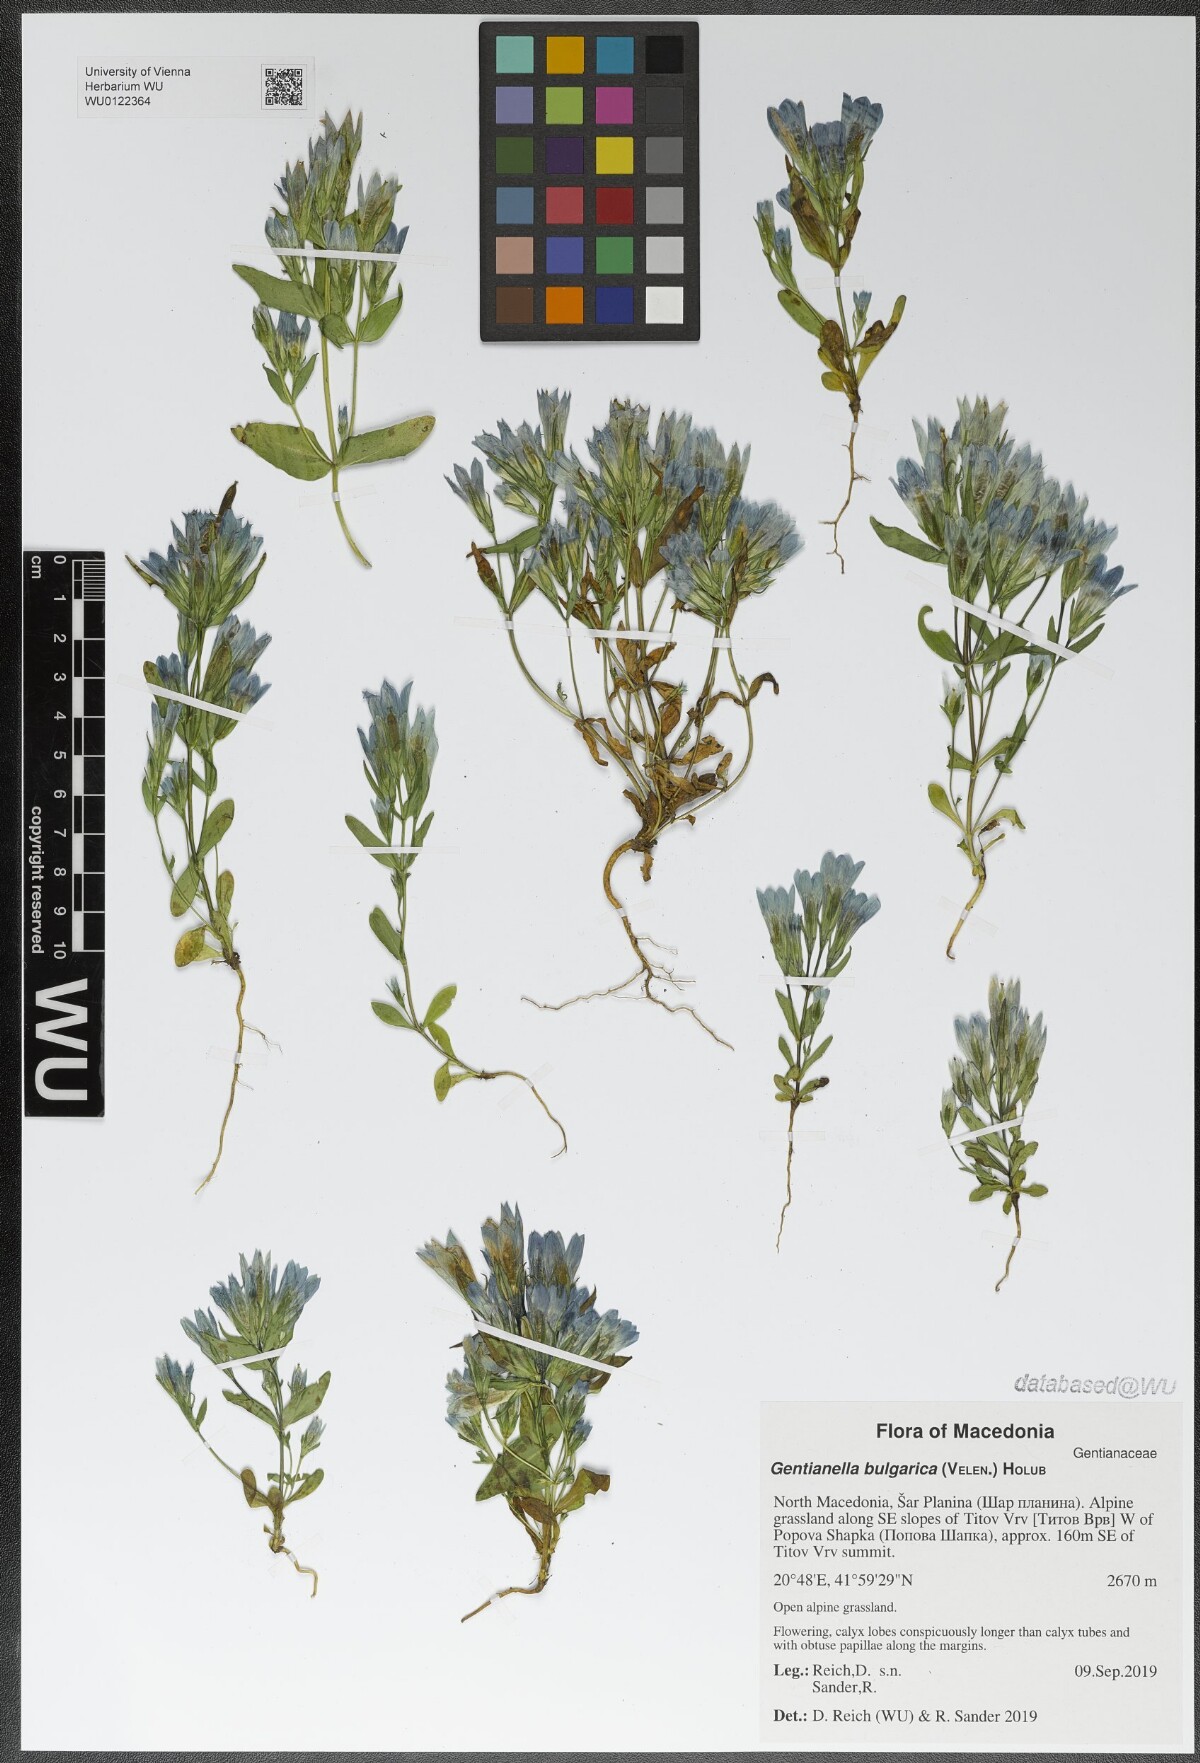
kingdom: Plantae
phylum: Tracheophyta
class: Magnoliopsida
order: Gentianales
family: Gentianaceae
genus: Gentianella
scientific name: Gentianella bulgarica
